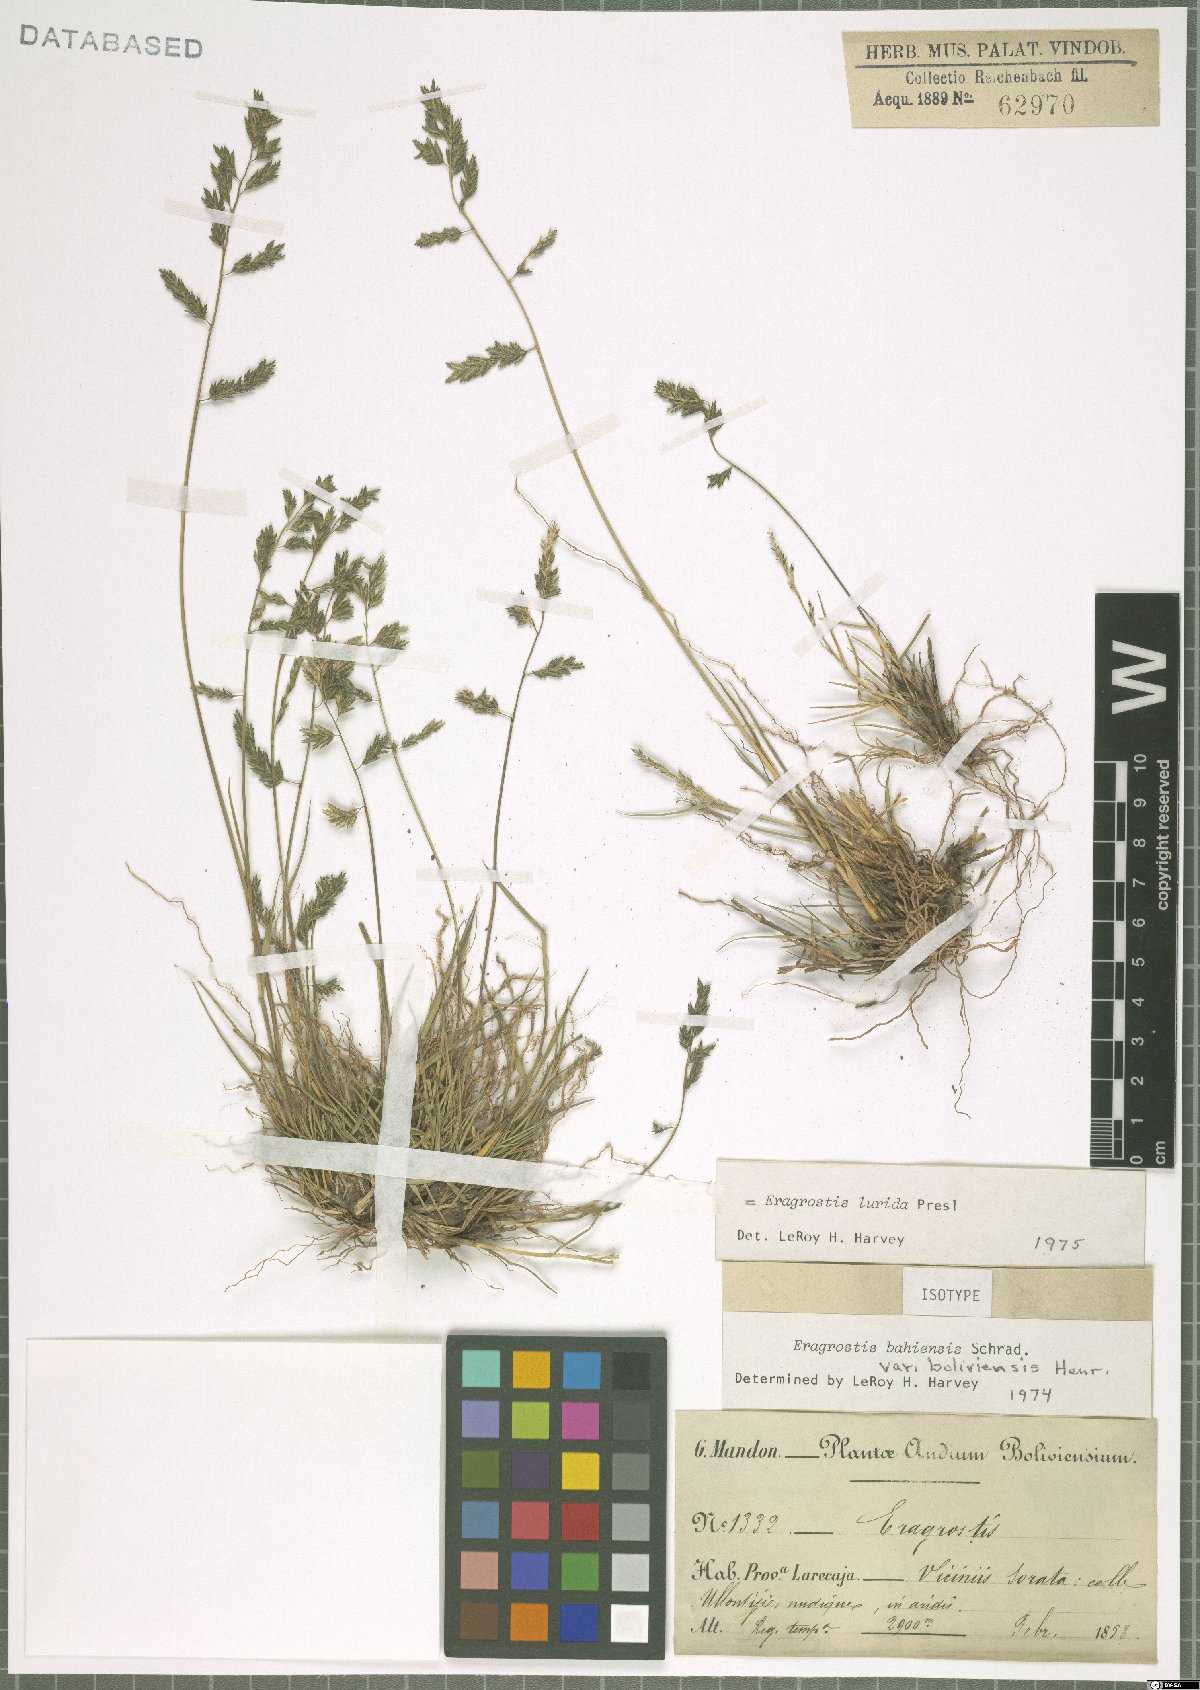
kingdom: Plantae
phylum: Tracheophyta
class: Liliopsida
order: Poales
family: Poaceae
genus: Eragrostis
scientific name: Eragrostis lurida
